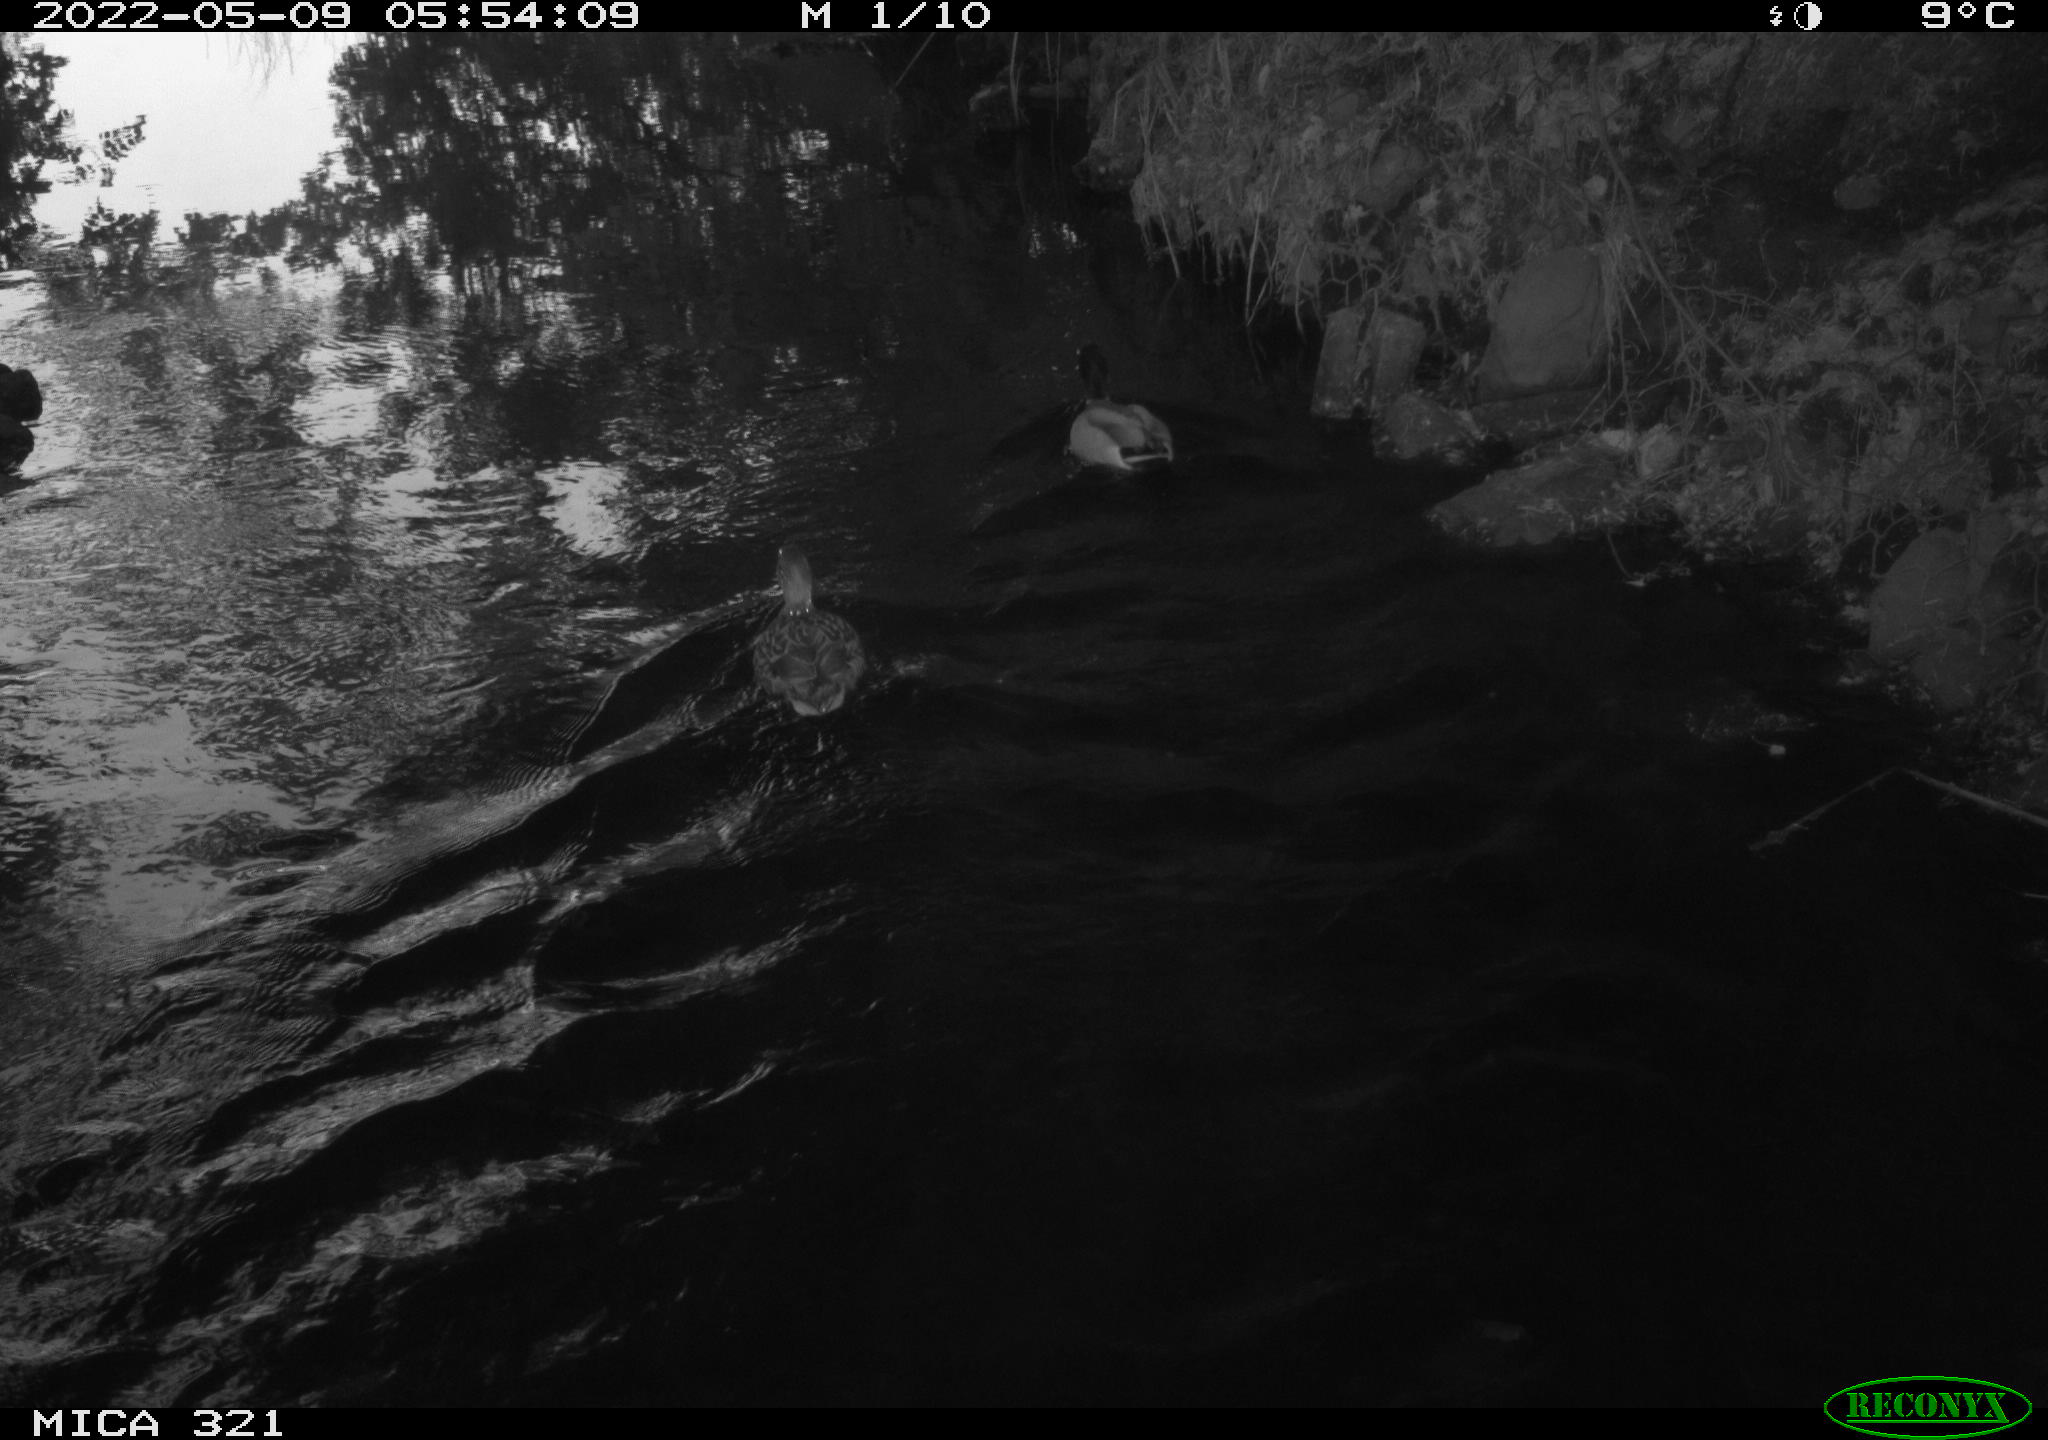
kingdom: Animalia
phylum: Chordata
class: Aves
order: Anseriformes
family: Anatidae
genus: Anas
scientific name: Anas platyrhynchos
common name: Mallard
